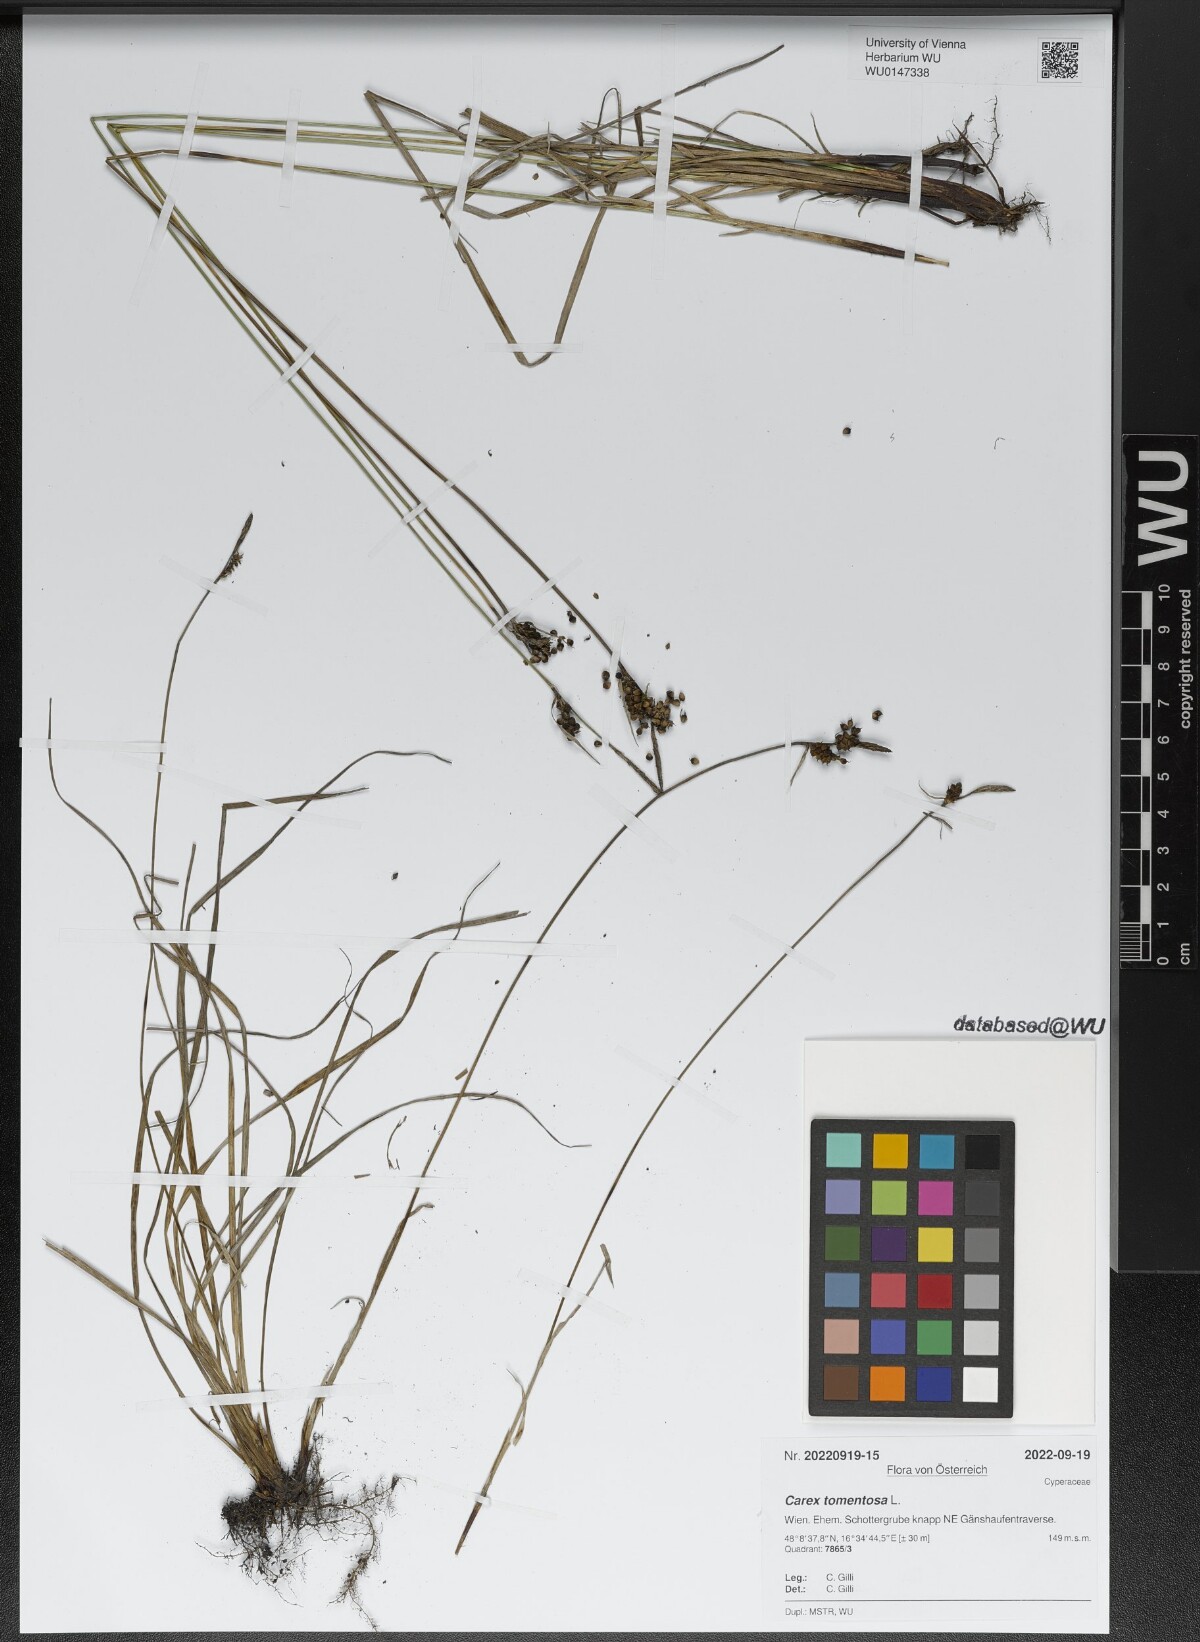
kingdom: Plantae
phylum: Tracheophyta
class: Liliopsida
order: Poales
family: Cyperaceae
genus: Carex
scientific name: Carex tomentosa
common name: Downy-fruited sedge
